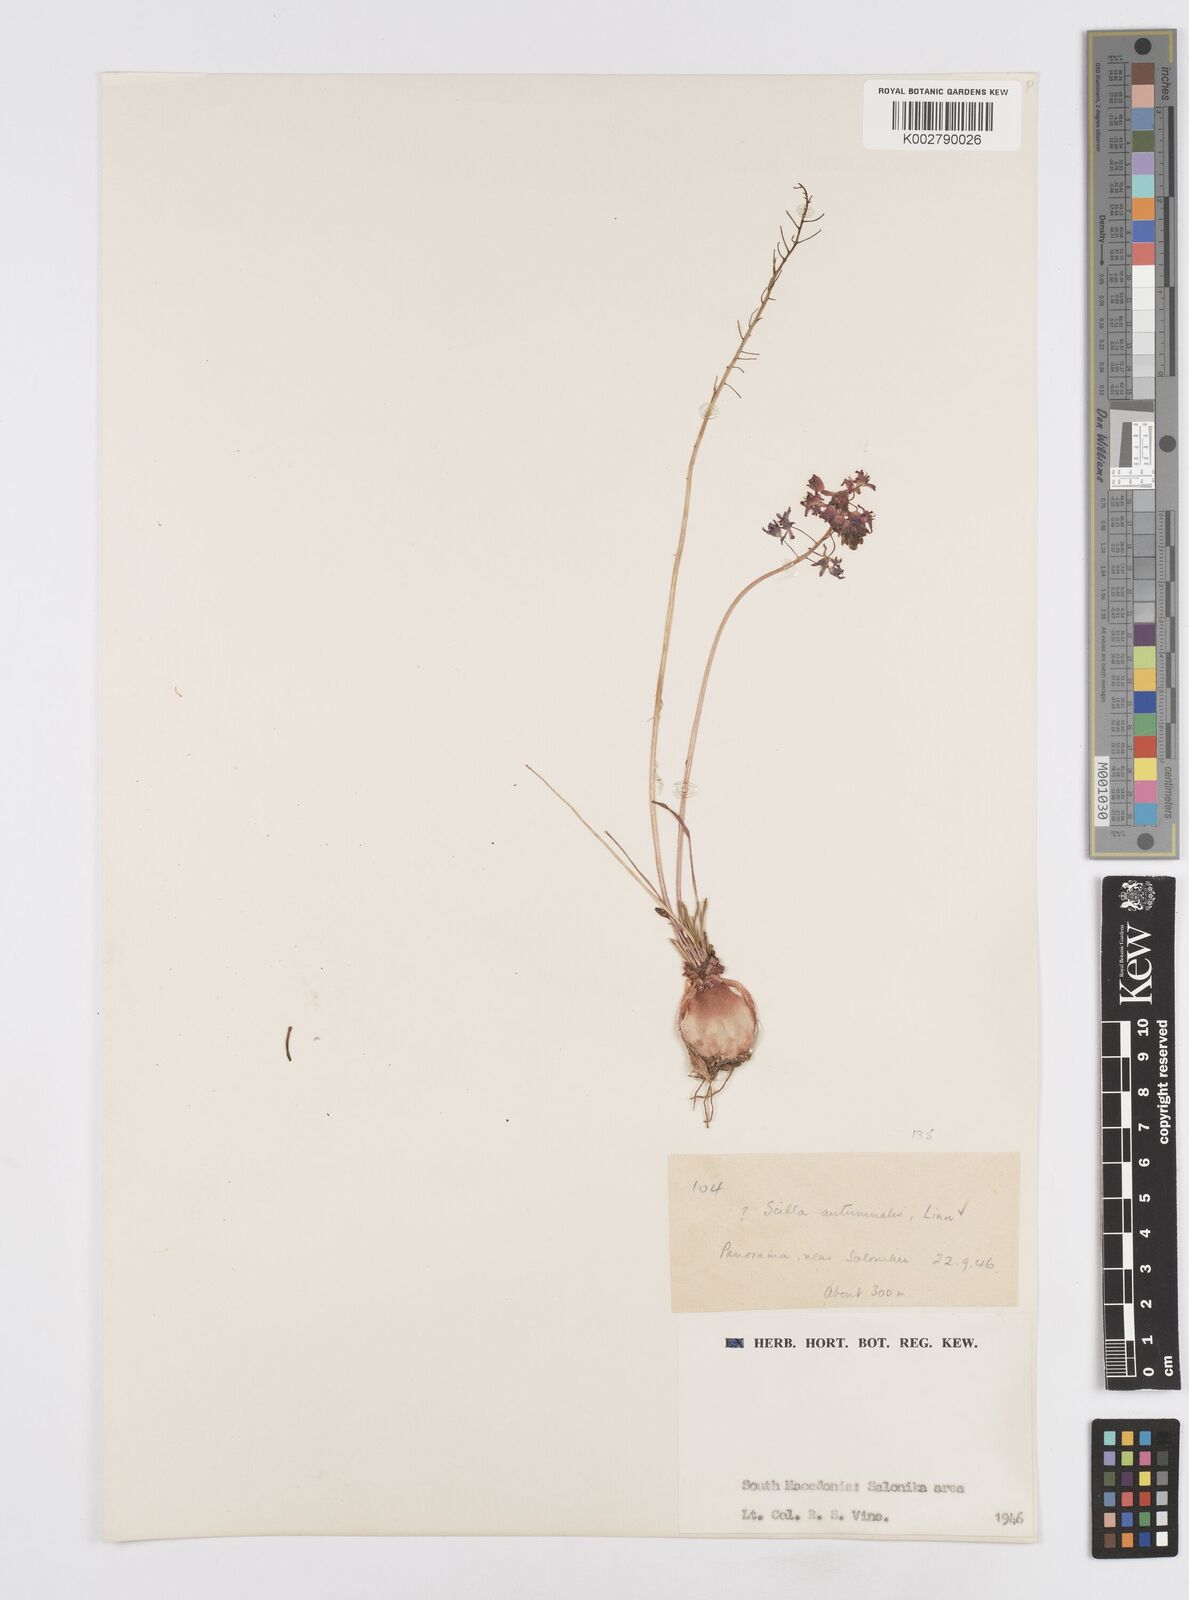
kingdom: Plantae
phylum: Tracheophyta
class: Liliopsida
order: Asparagales
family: Asparagaceae
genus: Prospero
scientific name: Prospero autumnale
